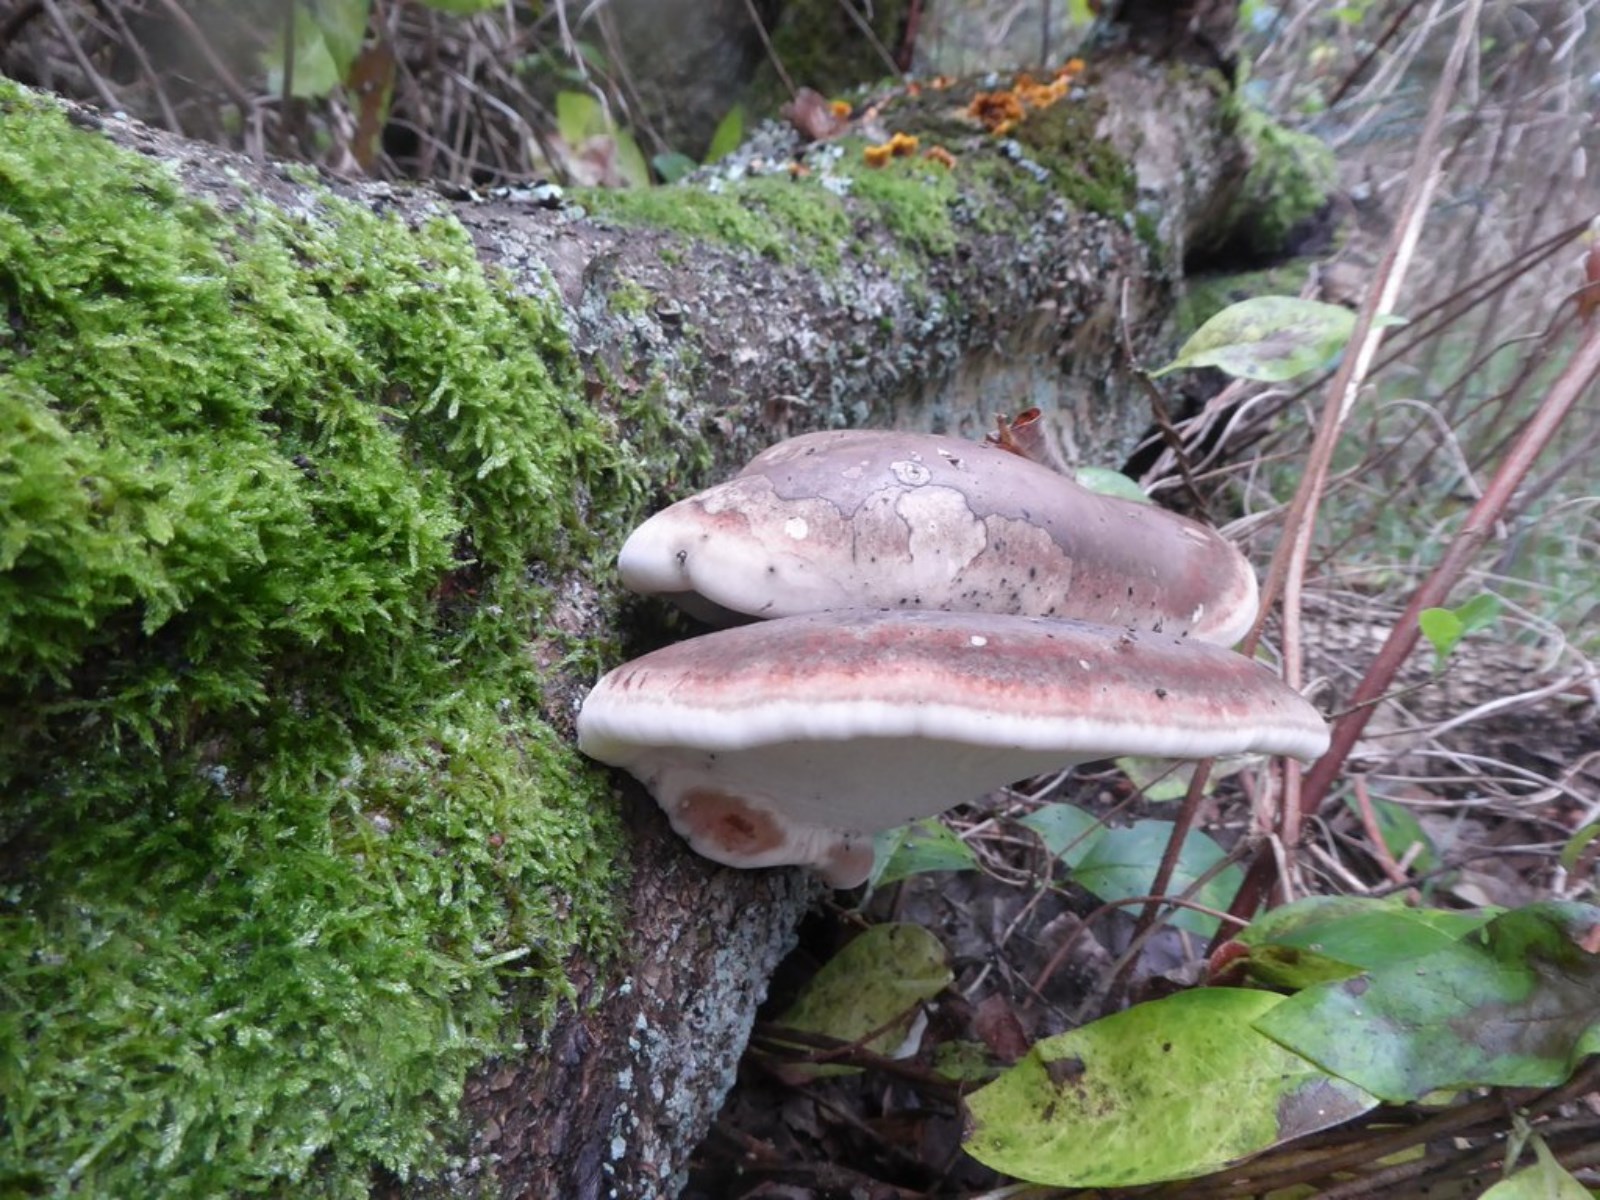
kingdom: Fungi
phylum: Basidiomycota
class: Agaricomycetes
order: Polyporales
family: Fomitopsidaceae
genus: Fomitopsis
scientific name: Fomitopsis betulina
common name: birkeporesvamp
